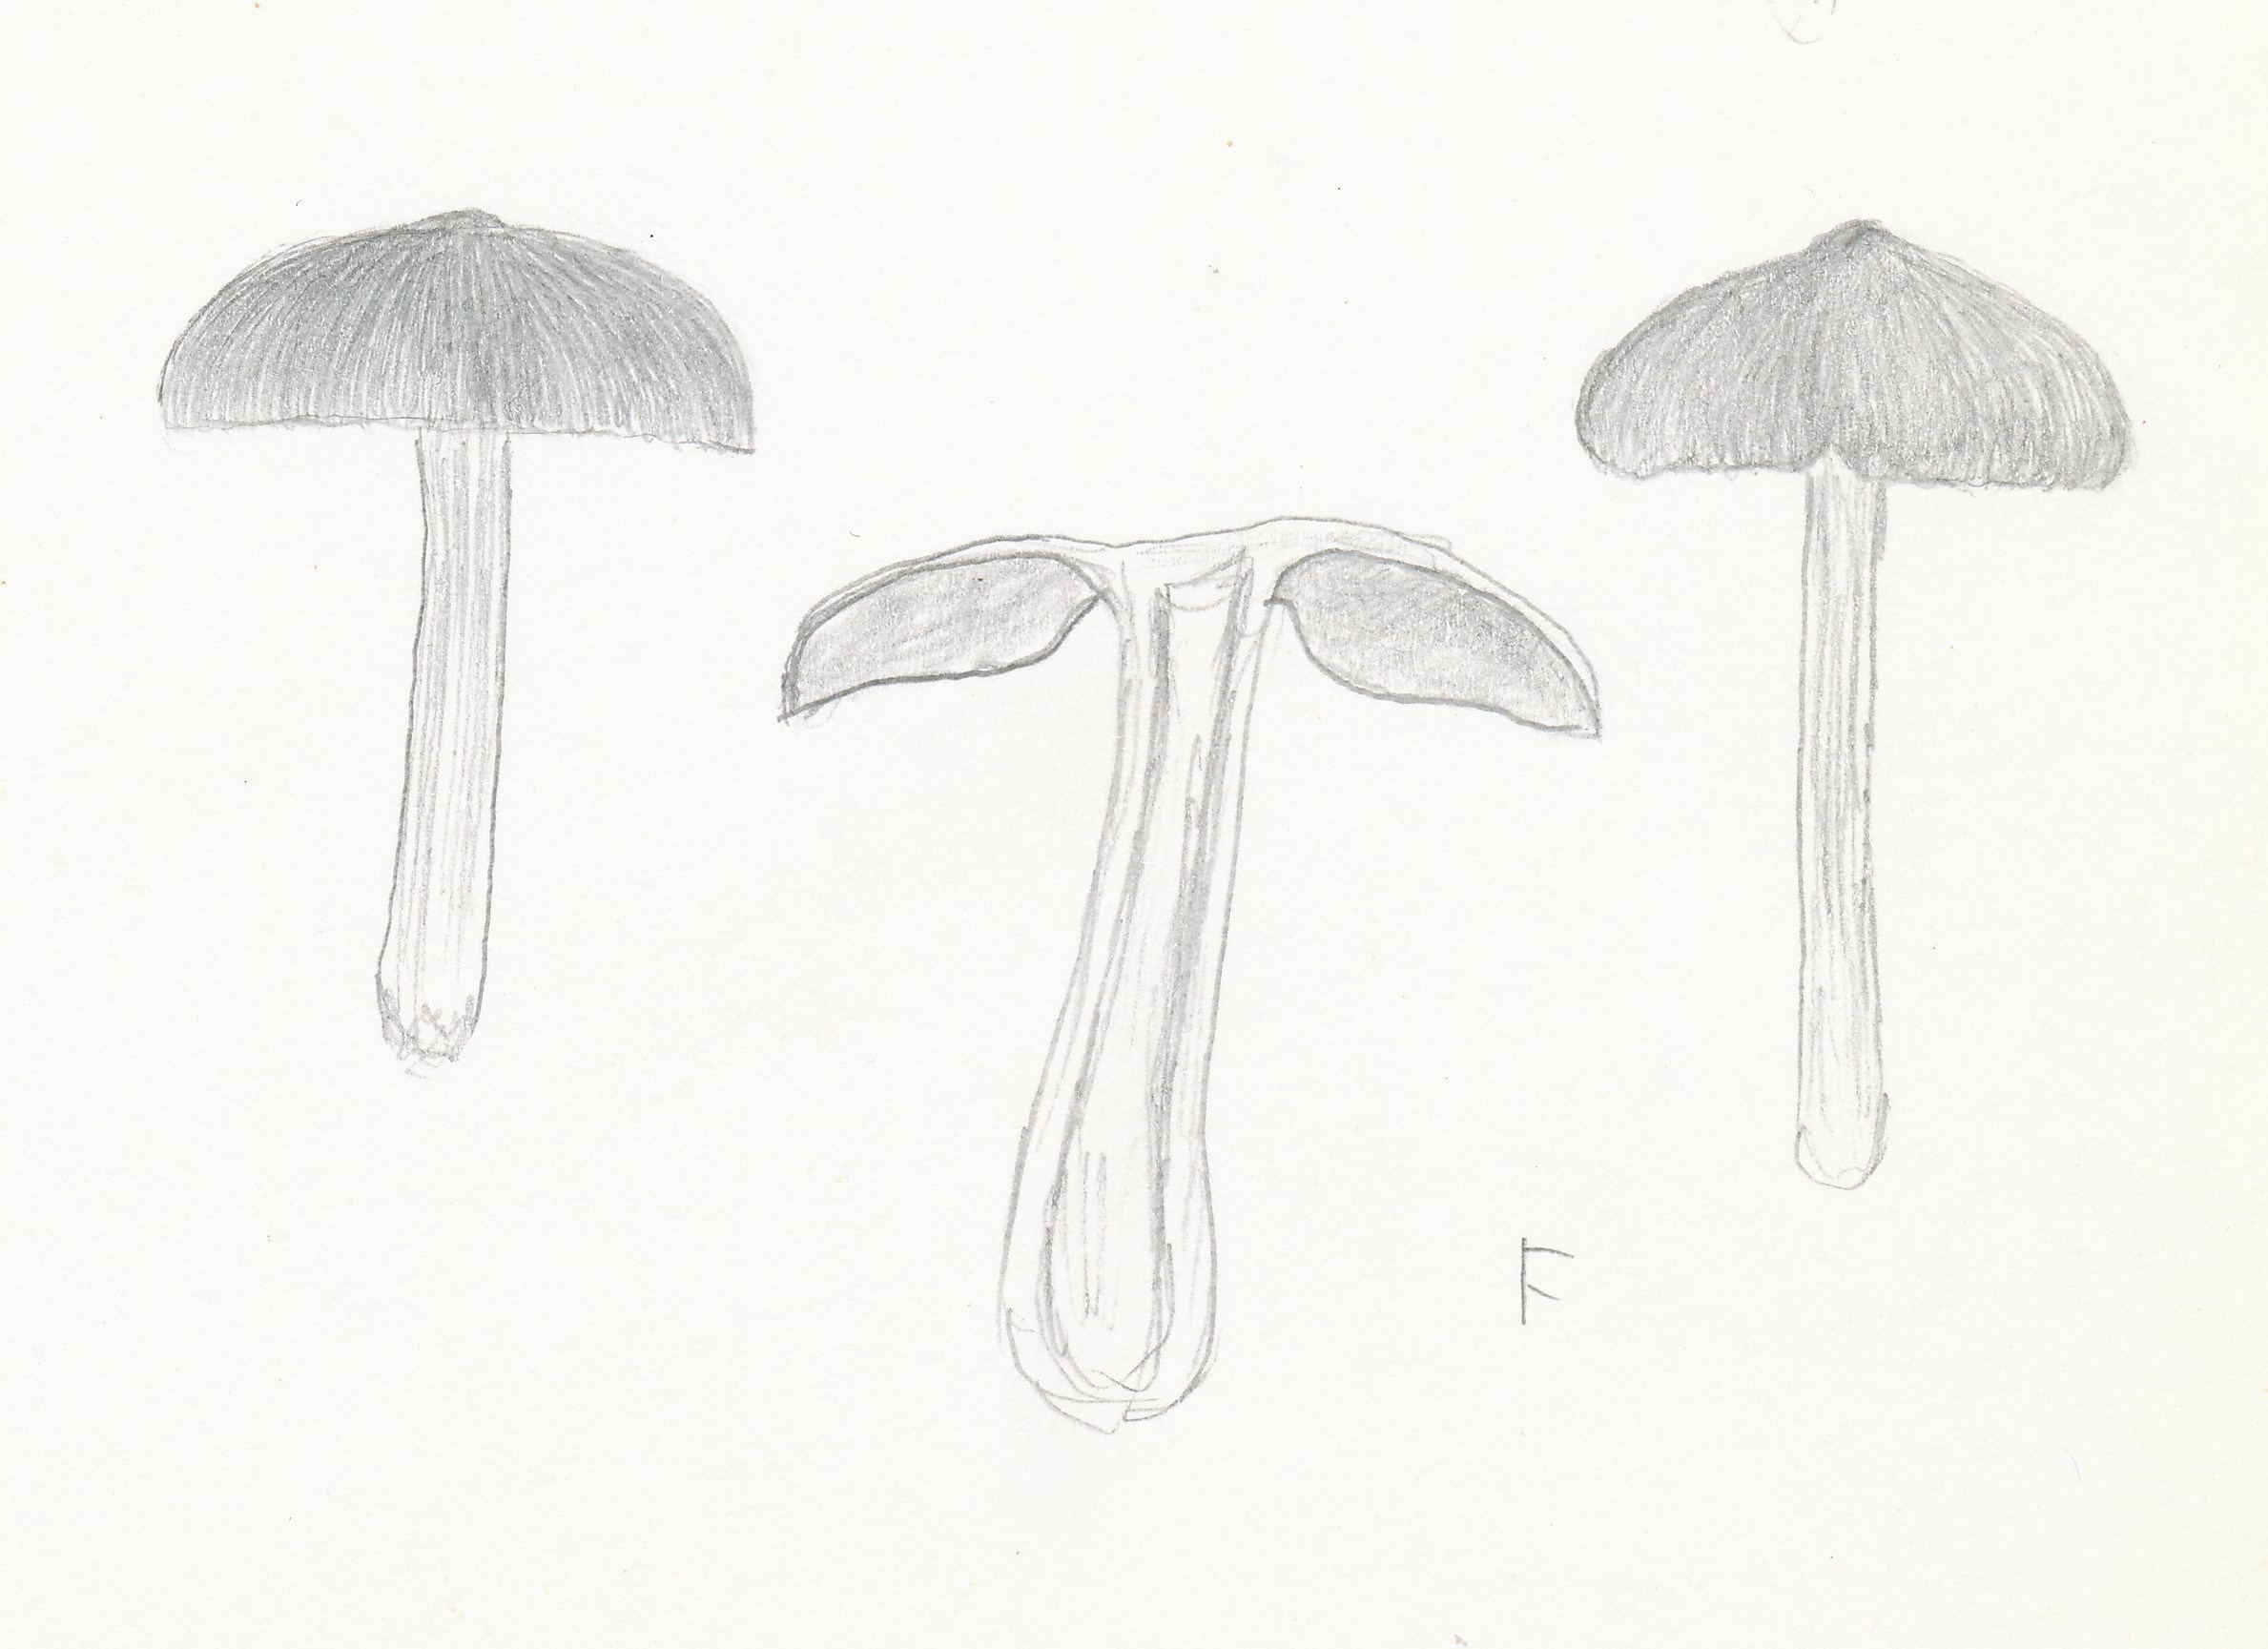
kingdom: Fungi
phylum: Basidiomycota
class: Agaricomycetes
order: Agaricales
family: Entolomataceae
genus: Entoloma
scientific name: Entoloma sericeum
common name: silkeglinsende rødblad
